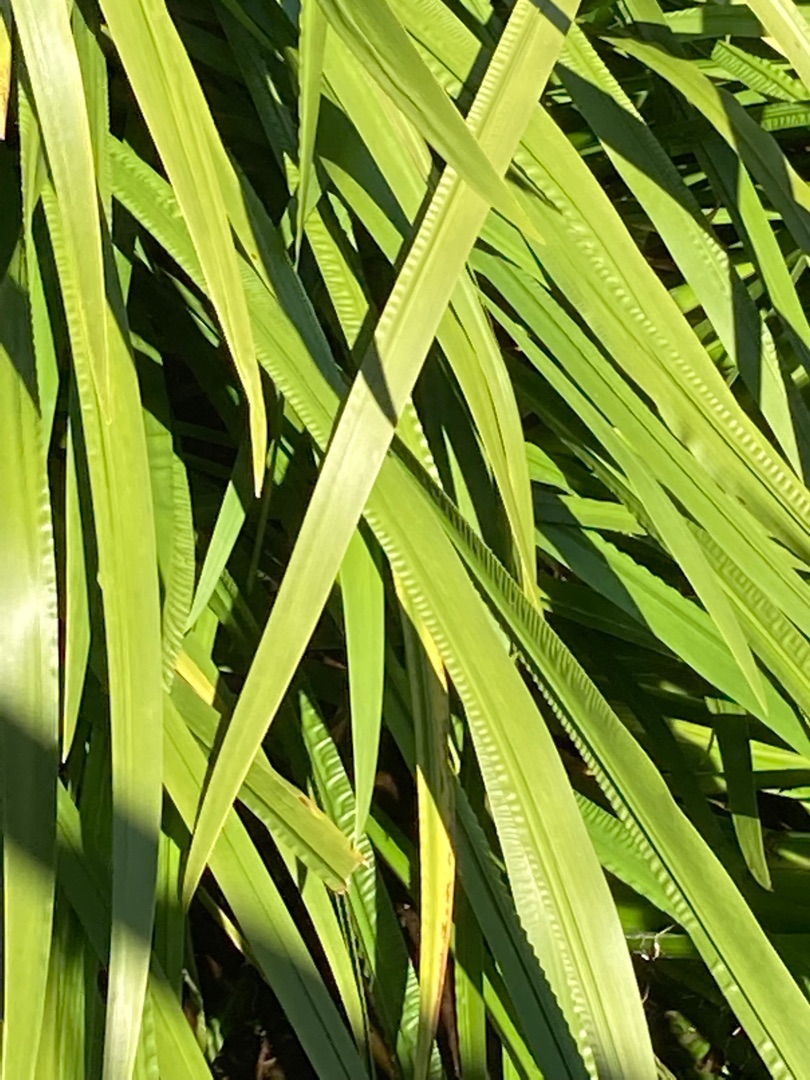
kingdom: Plantae
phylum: Tracheophyta
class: Liliopsida
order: Acorales
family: Acoraceae
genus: Acorus
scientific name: Acorus calamus
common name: Kalmus
